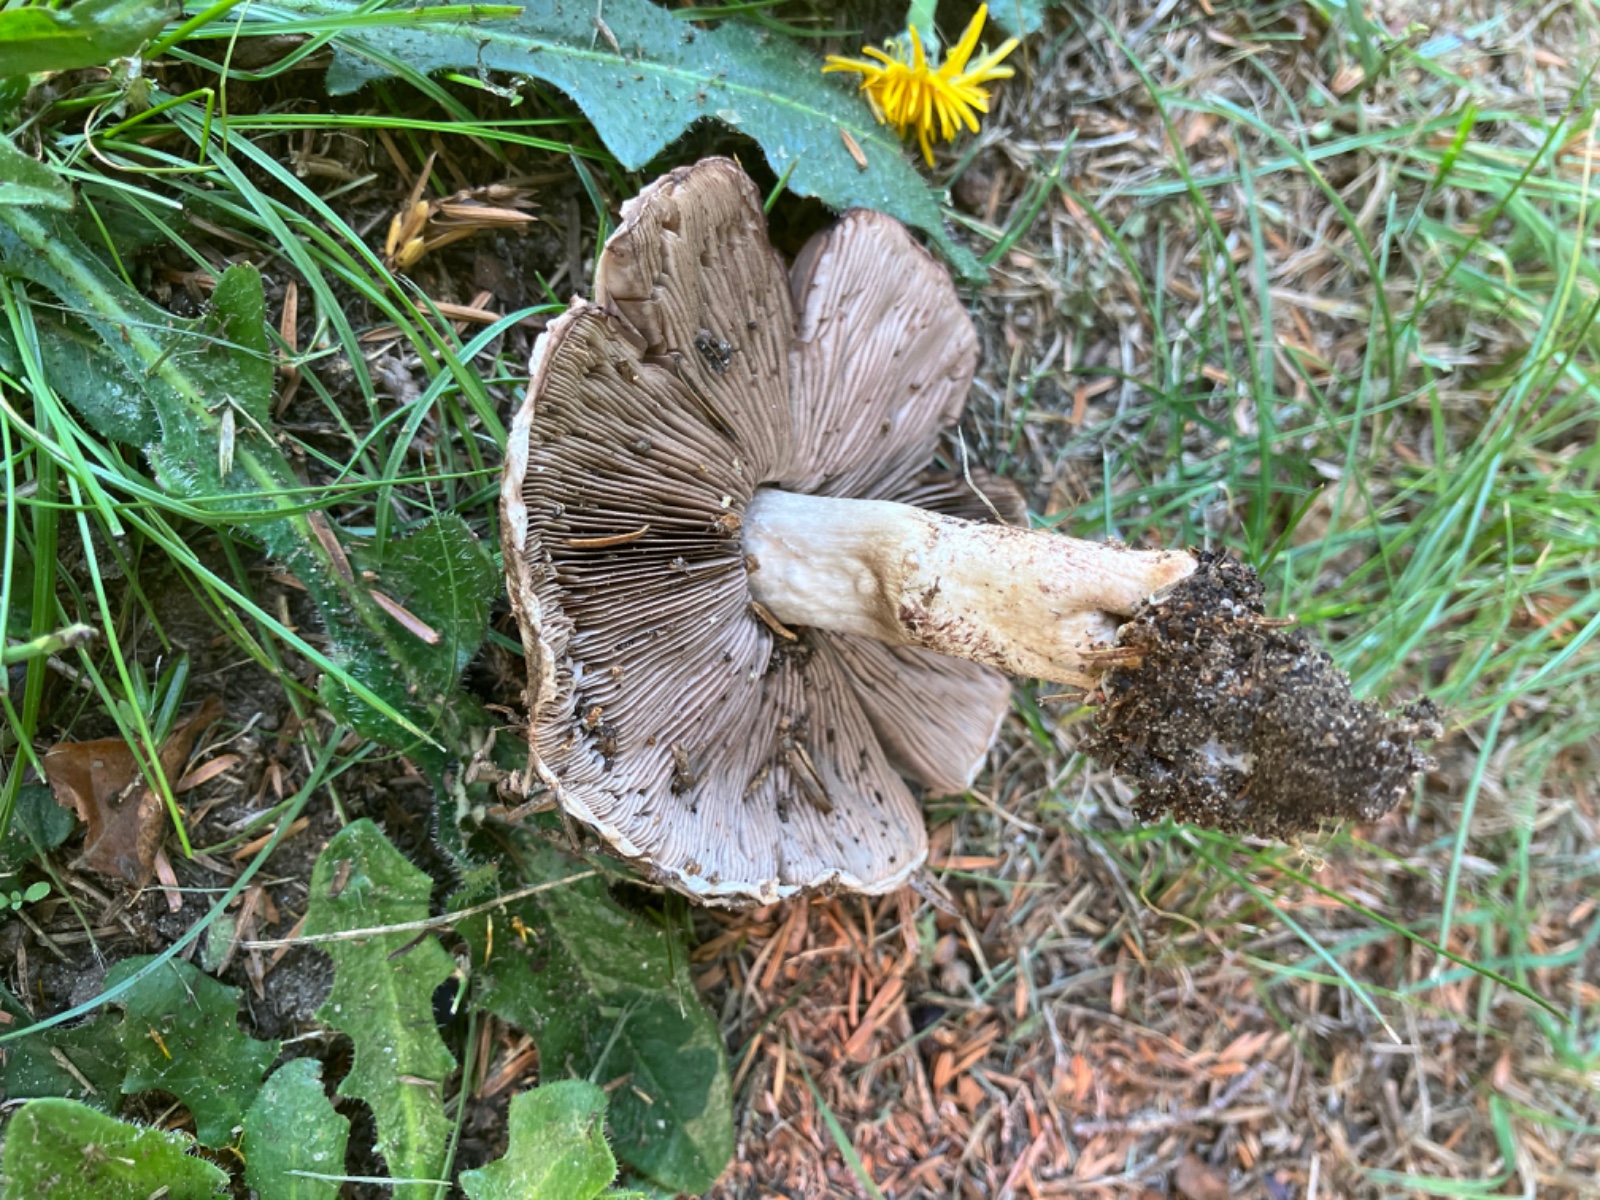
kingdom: Fungi
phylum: Basidiomycota
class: Agaricomycetes
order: Agaricales
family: Agaricaceae
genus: Agaricus
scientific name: Agaricus
